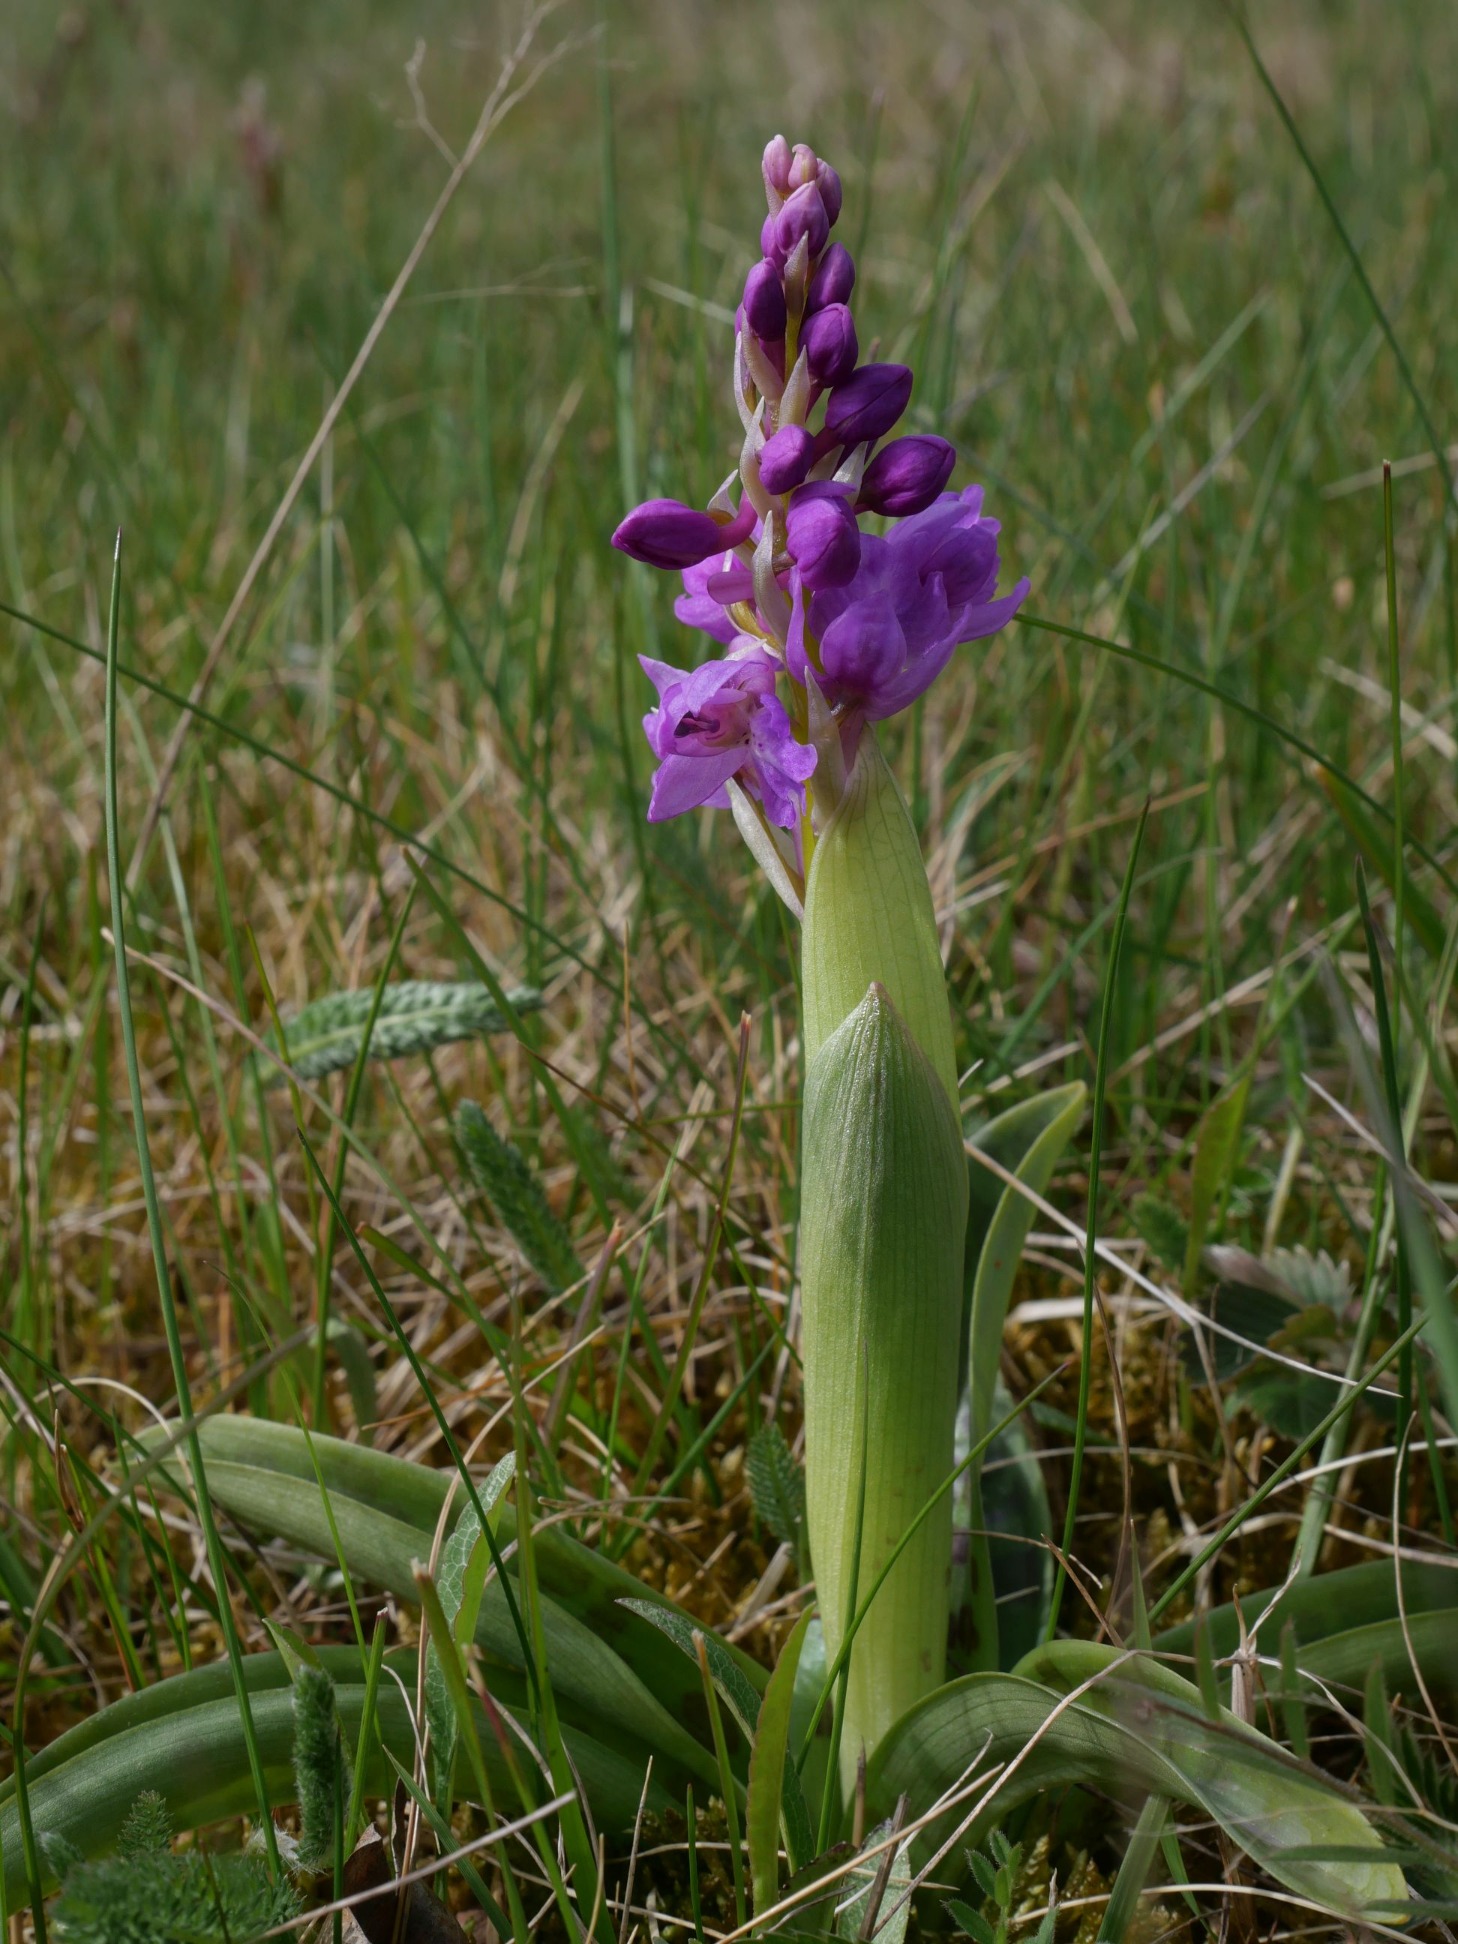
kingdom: Plantae
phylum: Tracheophyta
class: Liliopsida
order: Asparagales
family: Orchidaceae
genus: Orchis
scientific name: Orchis mascula
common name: Tyndakset gøgeurt
